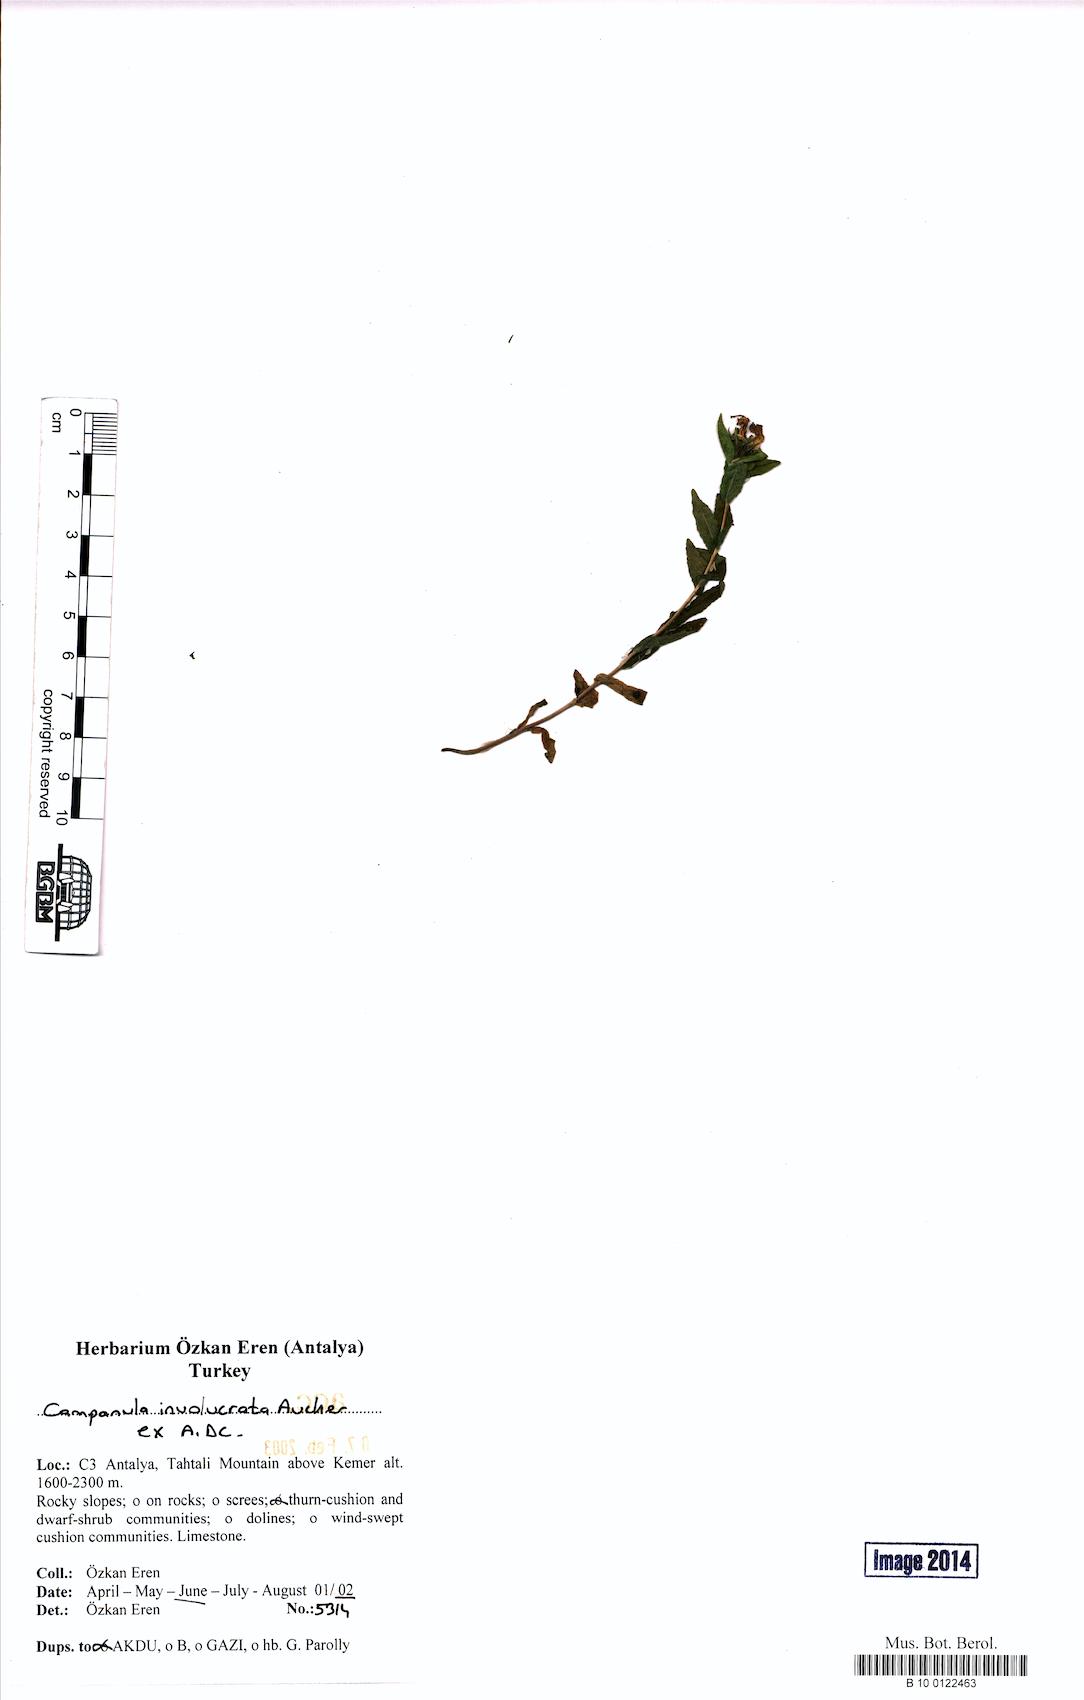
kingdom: Plantae
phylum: Tracheophyta
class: Magnoliopsida
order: Asterales
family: Campanulaceae
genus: Campanula
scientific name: Campanula involucrata
